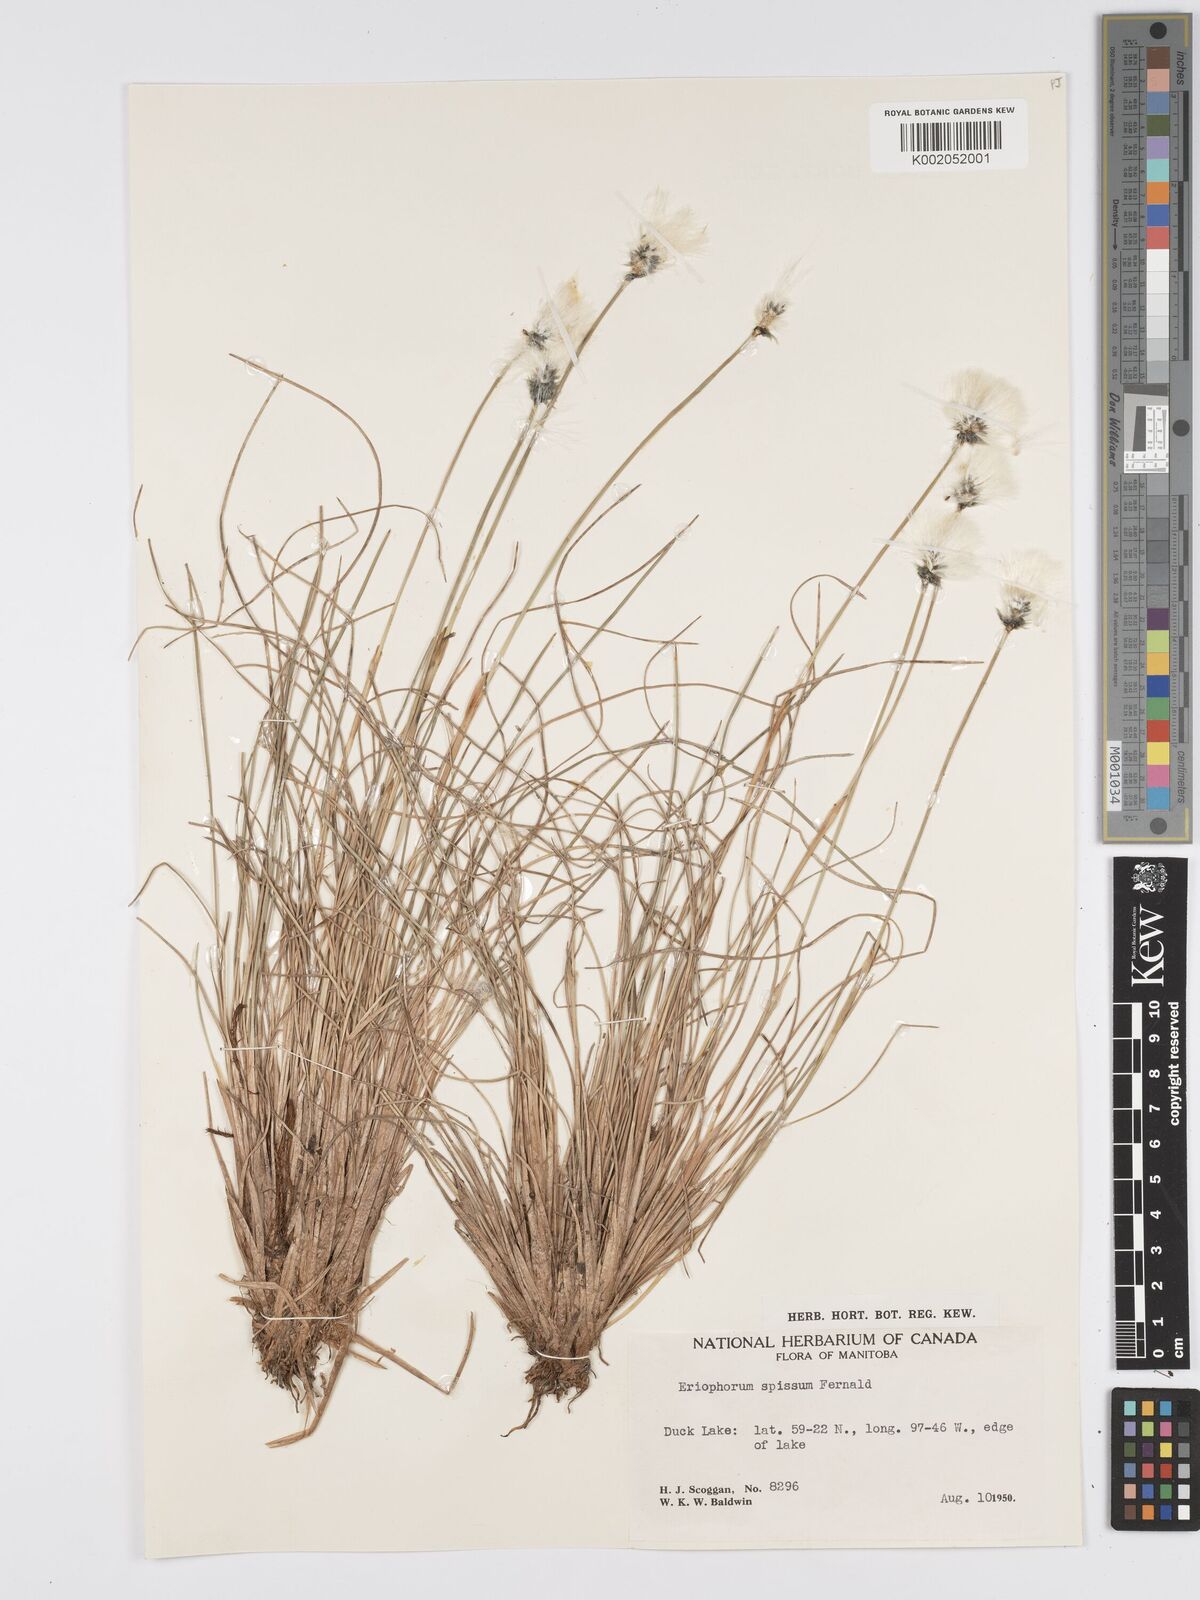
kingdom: Plantae
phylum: Tracheophyta
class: Liliopsida
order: Poales
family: Cyperaceae
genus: Eriophorum
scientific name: Eriophorum vaginatum
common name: Hare's-tail cottongrass
